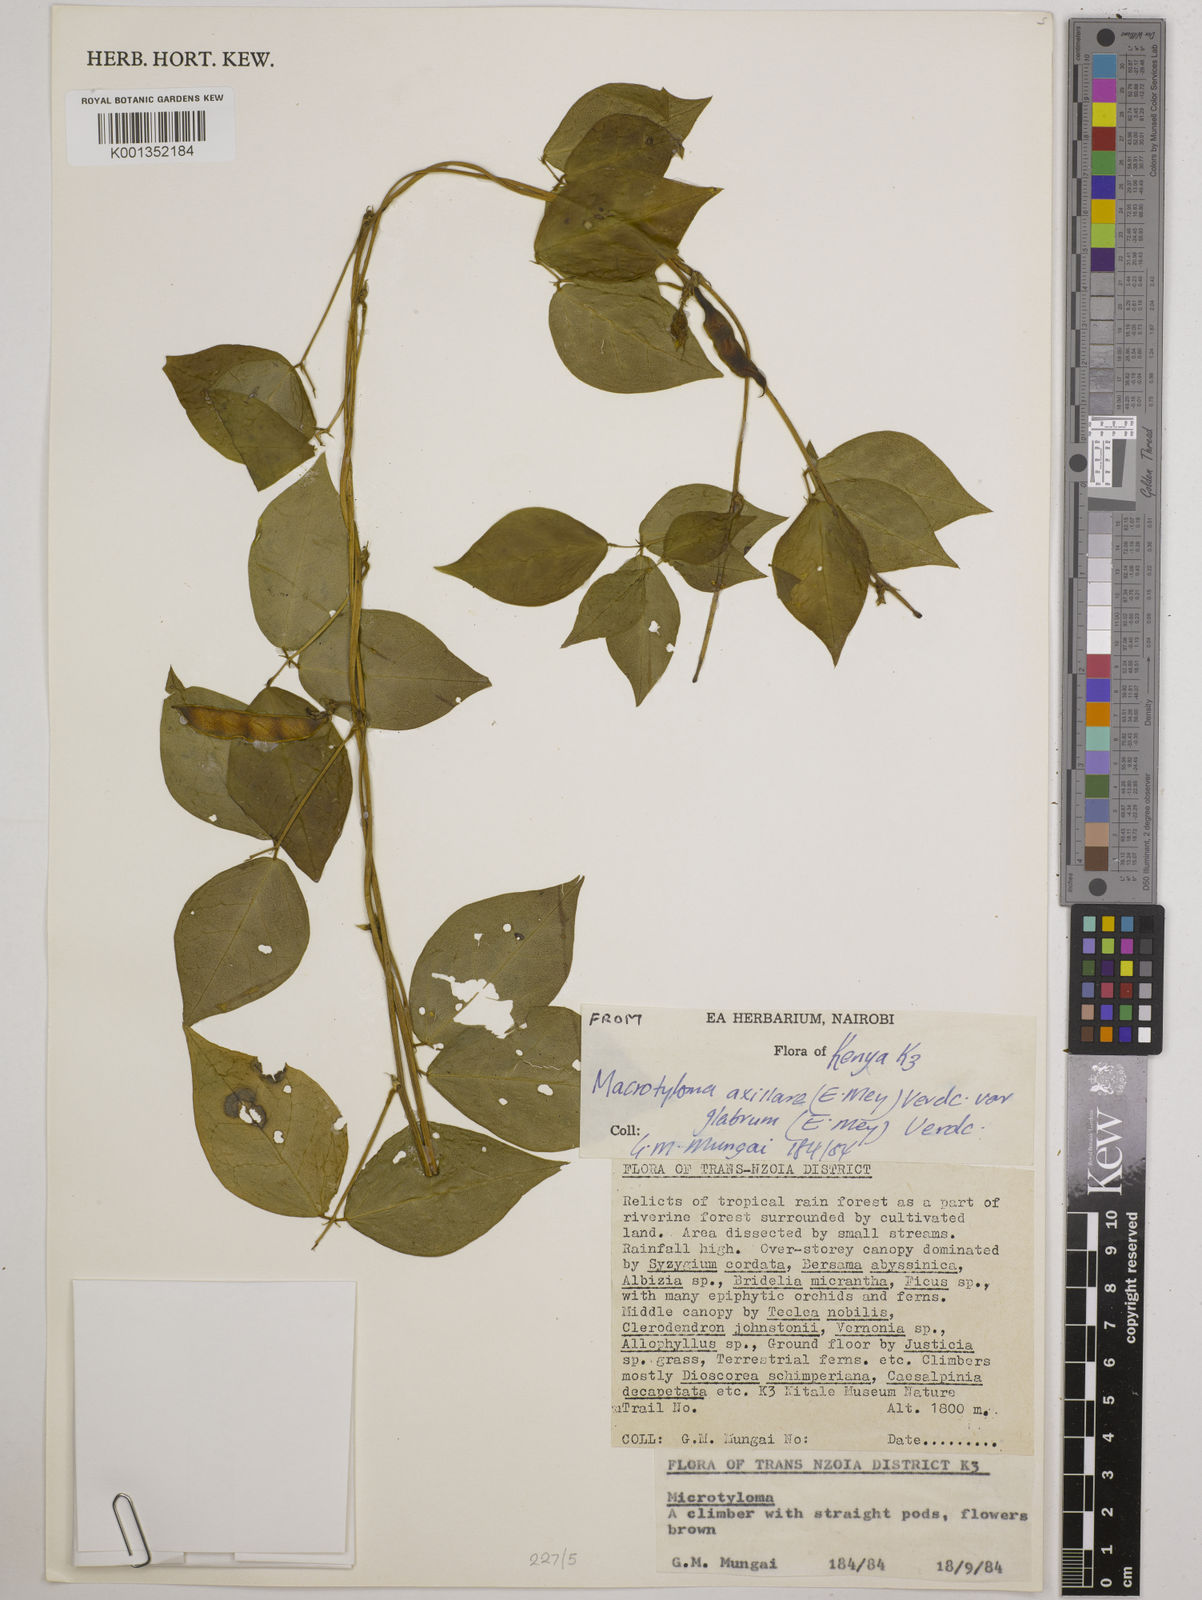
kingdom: Plantae
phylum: Tracheophyta
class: Magnoliopsida
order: Fabales
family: Fabaceae
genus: Macrotyloma
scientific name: Macrotyloma
